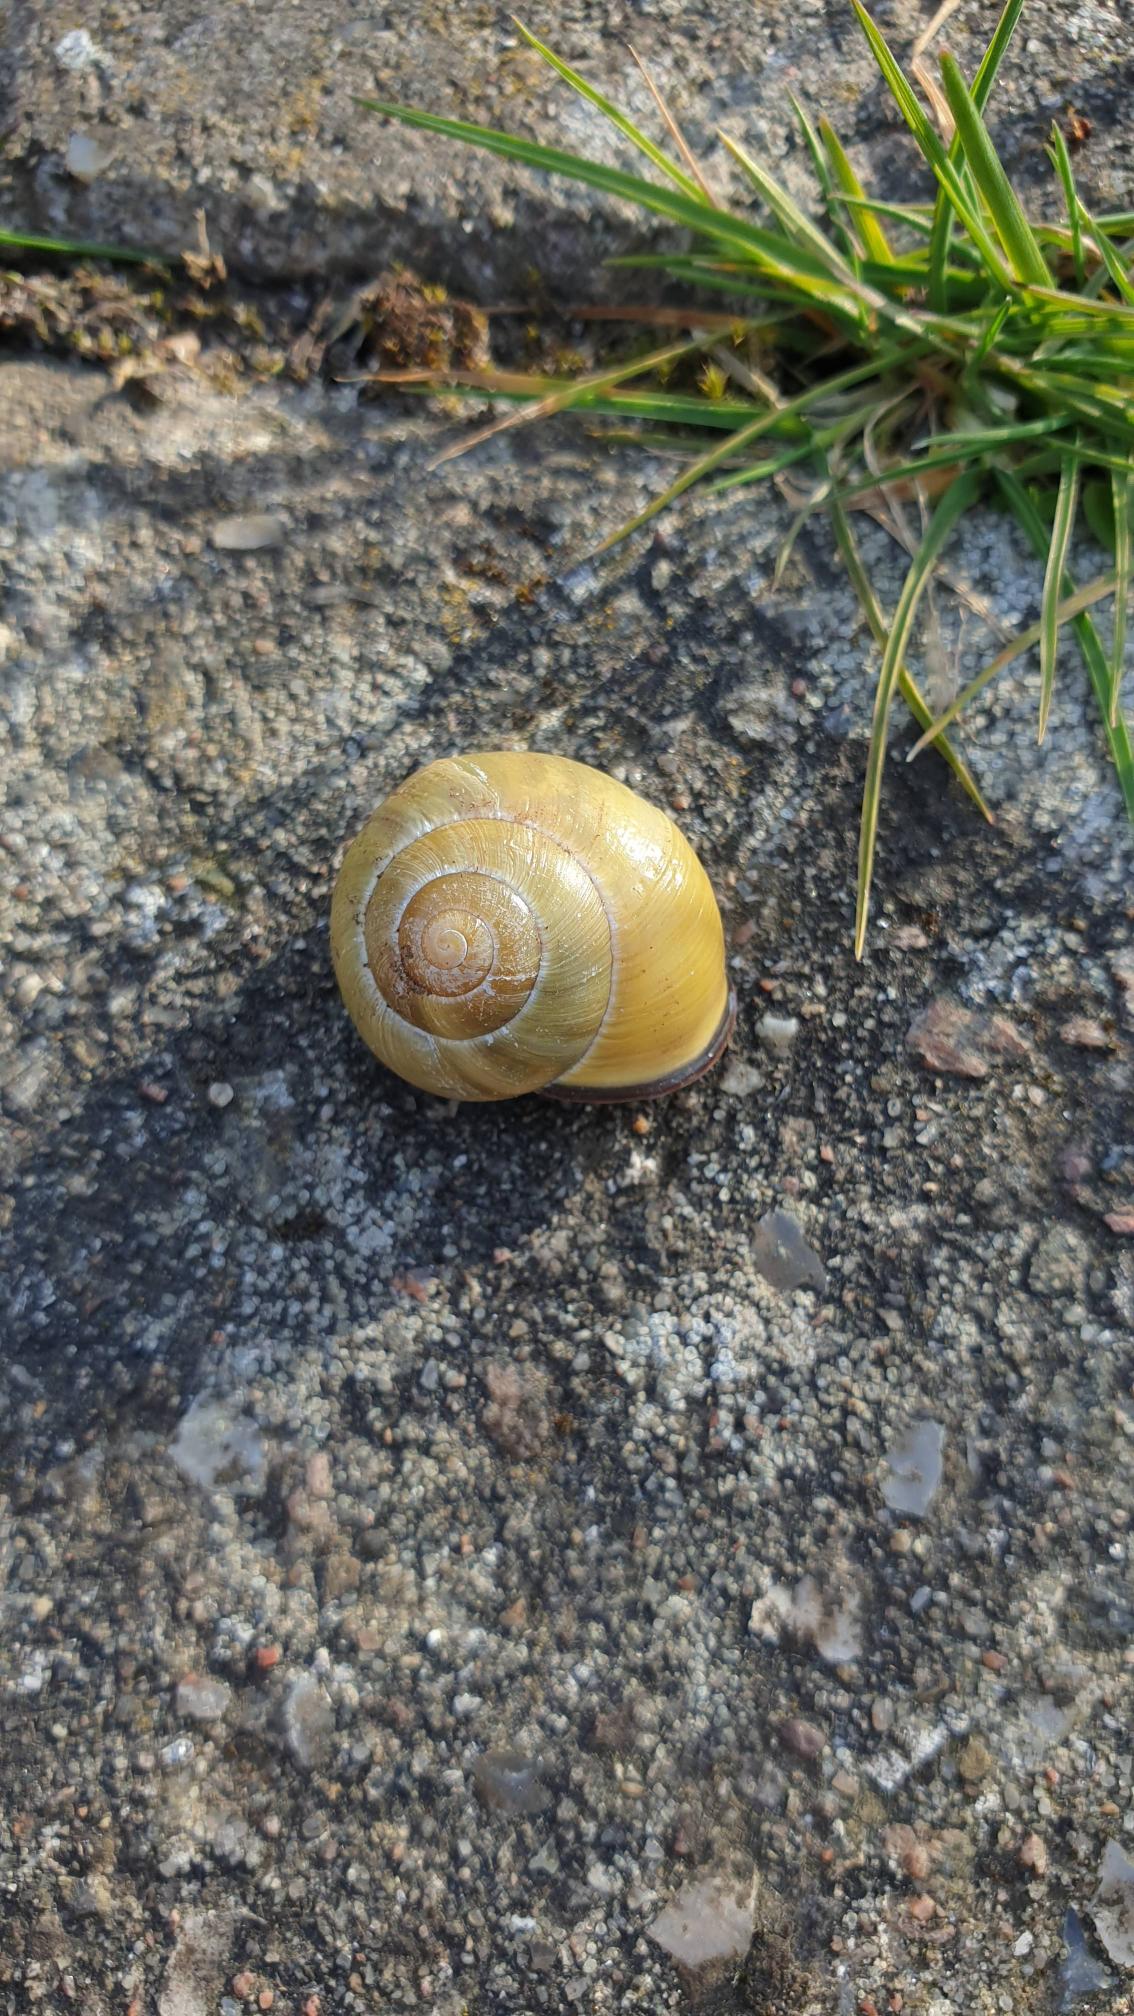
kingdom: Animalia
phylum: Mollusca
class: Gastropoda
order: Stylommatophora
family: Helicidae
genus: Cepaea
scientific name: Cepaea nemoralis
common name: Lundsnegl
